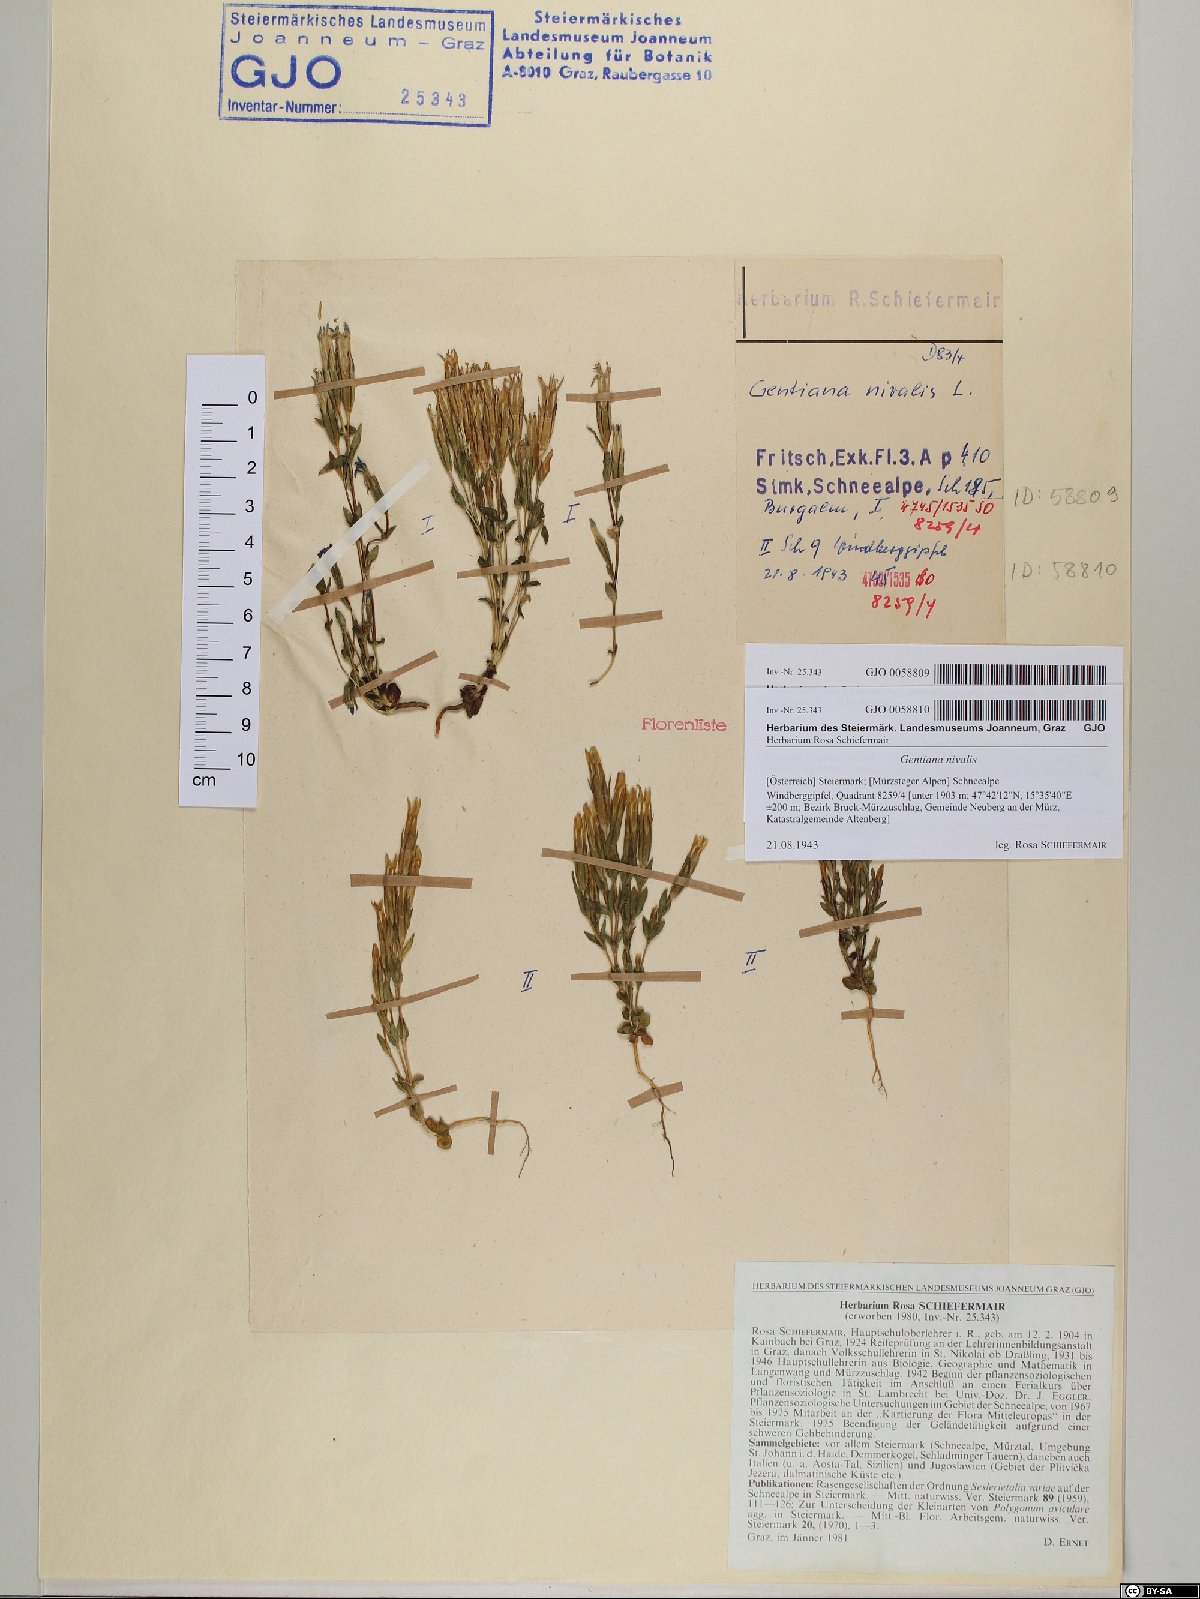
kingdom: Plantae
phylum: Tracheophyta
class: Magnoliopsida
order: Gentianales
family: Gentianaceae
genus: Gentiana
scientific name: Gentiana nivalis
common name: Alpine gentian
